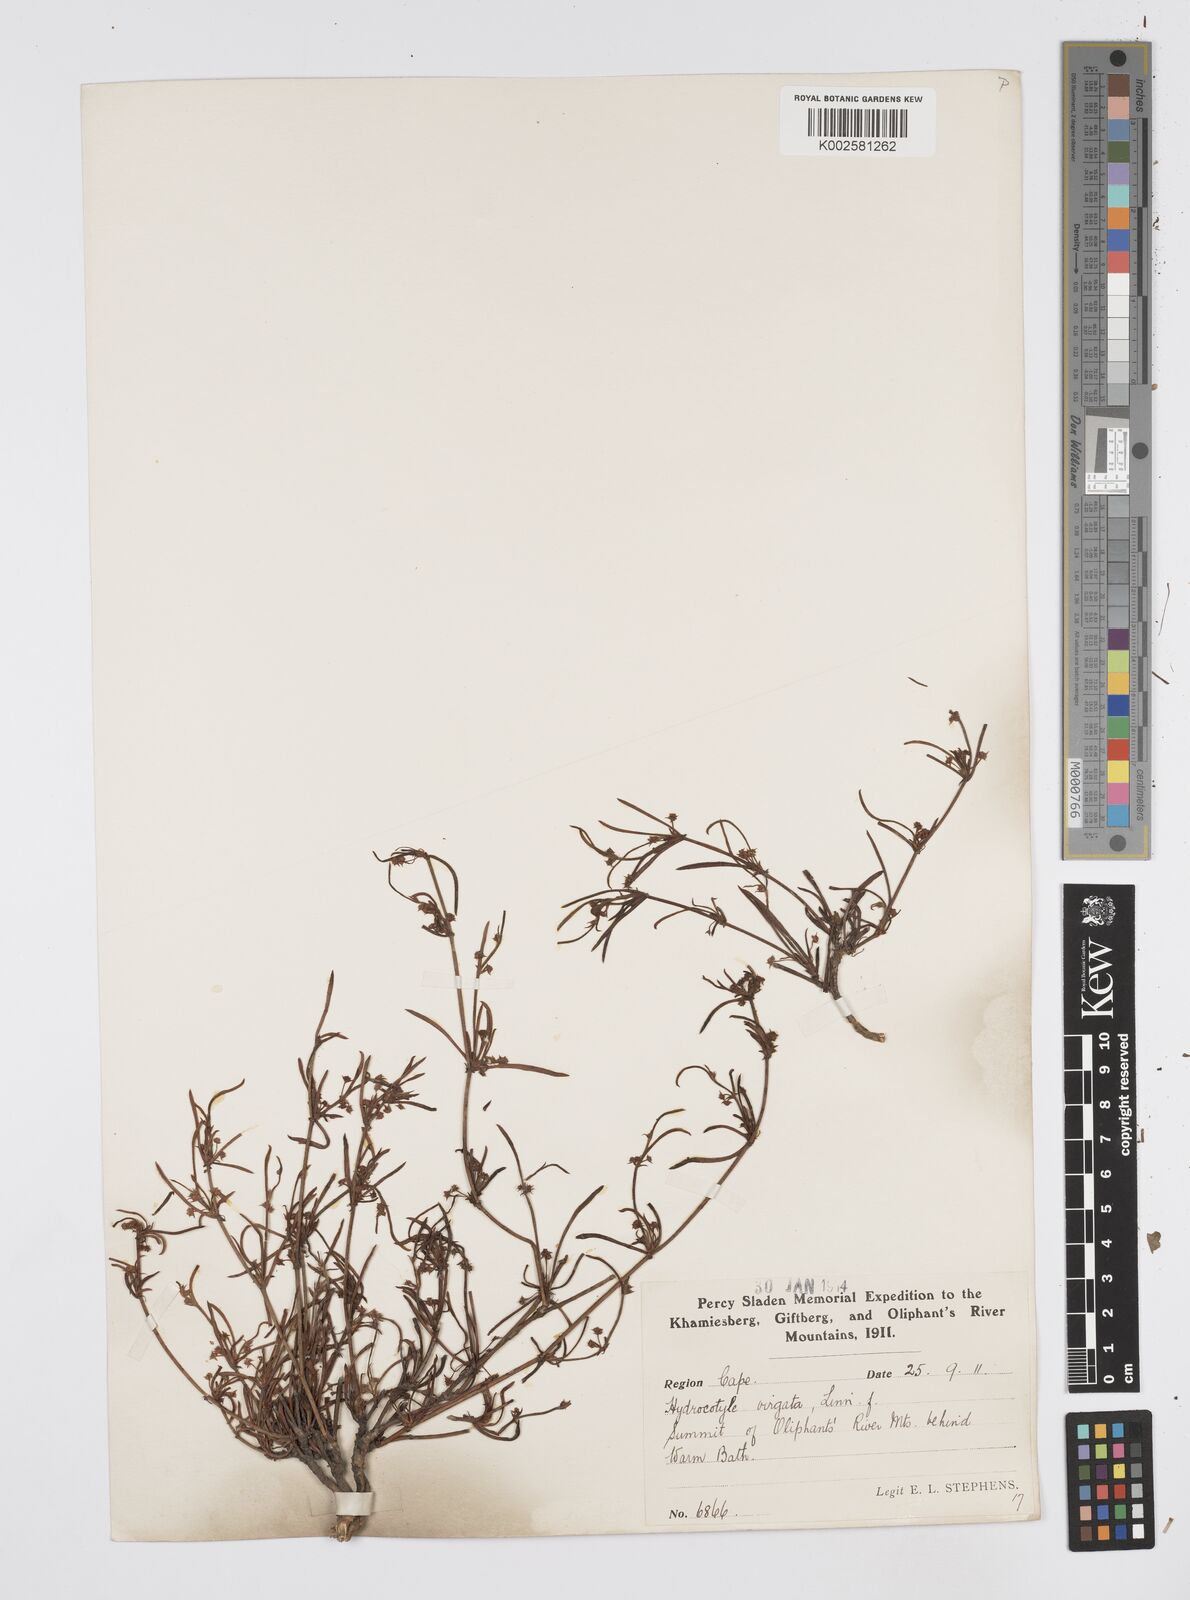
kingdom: Plantae
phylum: Tracheophyta
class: Magnoliopsida
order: Apiales
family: Apiaceae
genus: Centella
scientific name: Centella linifolia
